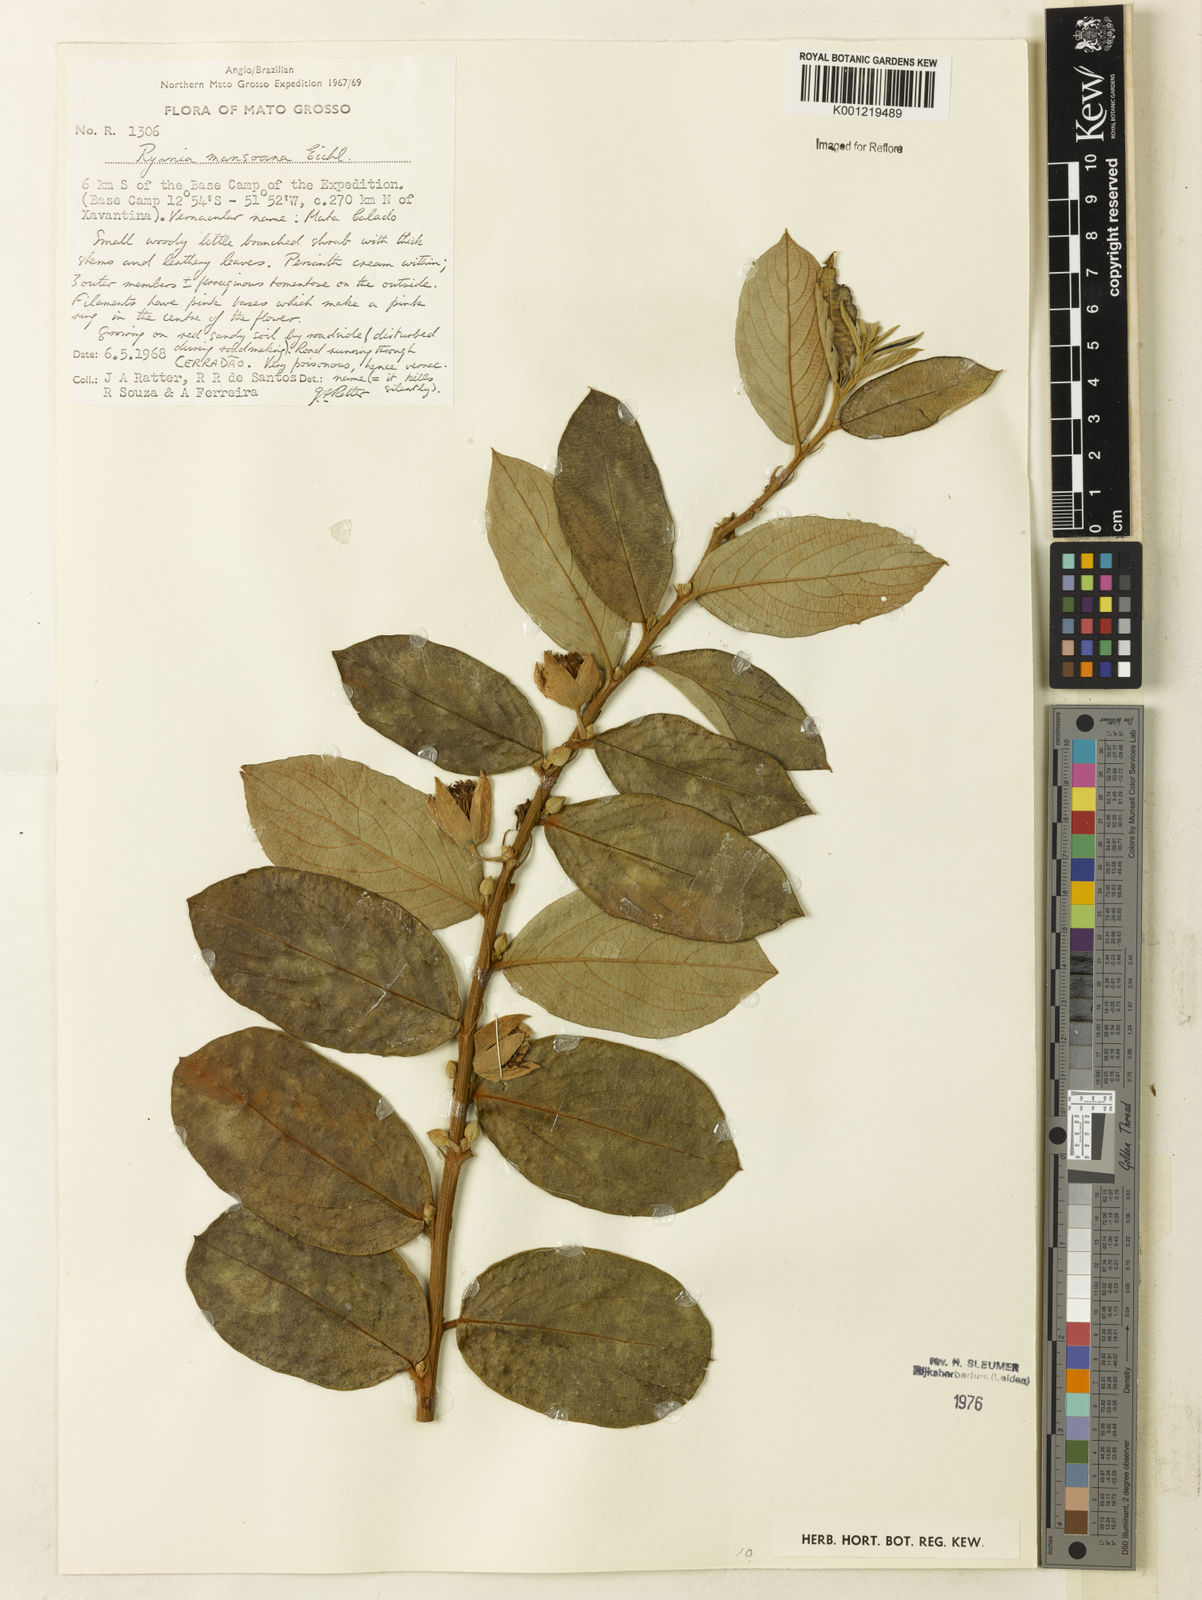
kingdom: Plantae
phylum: Tracheophyta
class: Magnoliopsida
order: Malpighiales
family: Salicaceae
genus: Ryania
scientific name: Ryania mansoana
